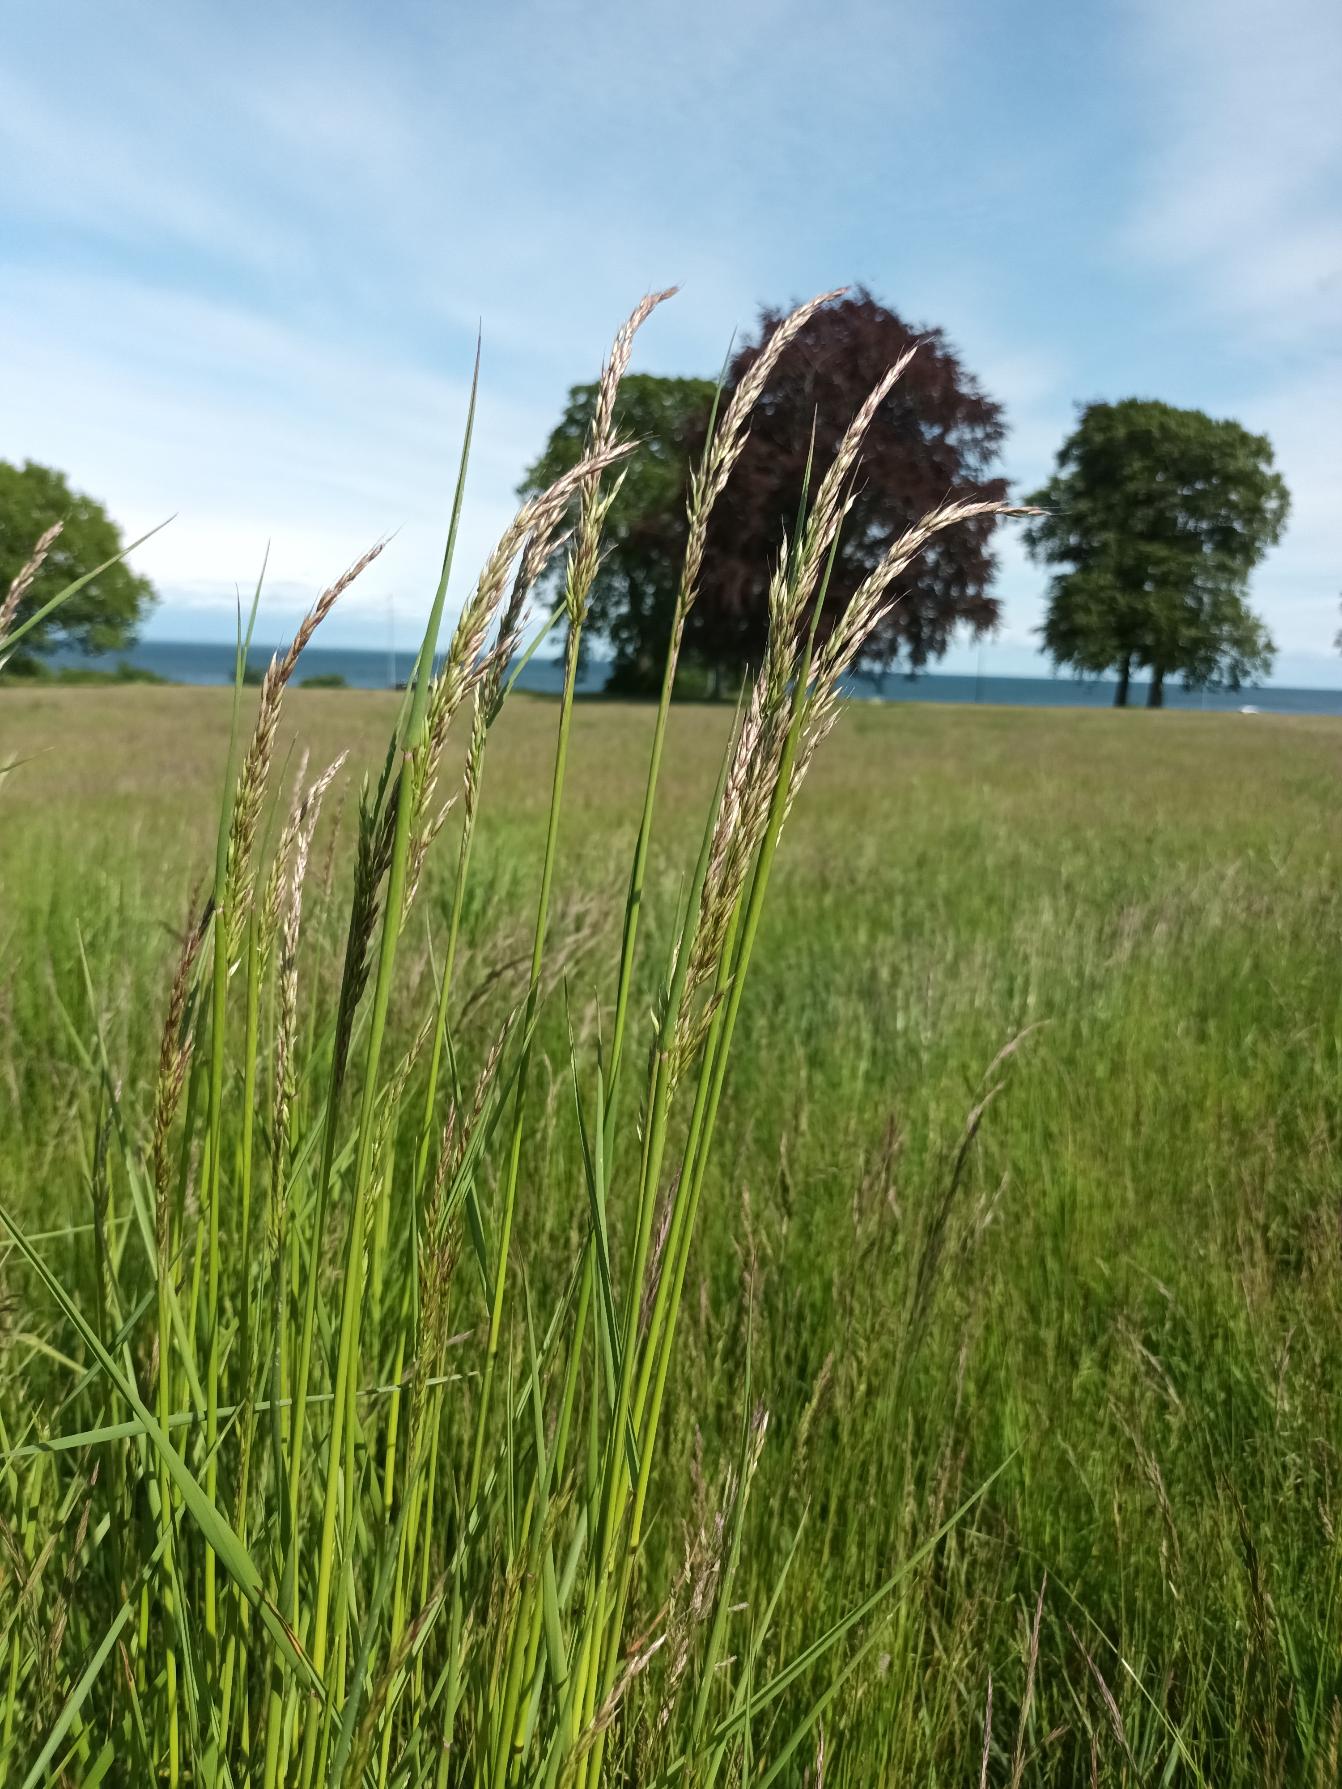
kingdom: Plantae
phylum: Tracheophyta
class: Liliopsida
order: Poales
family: Poaceae
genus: Arrhenatherum
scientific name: Arrhenatherum elatius
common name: Draphavre
